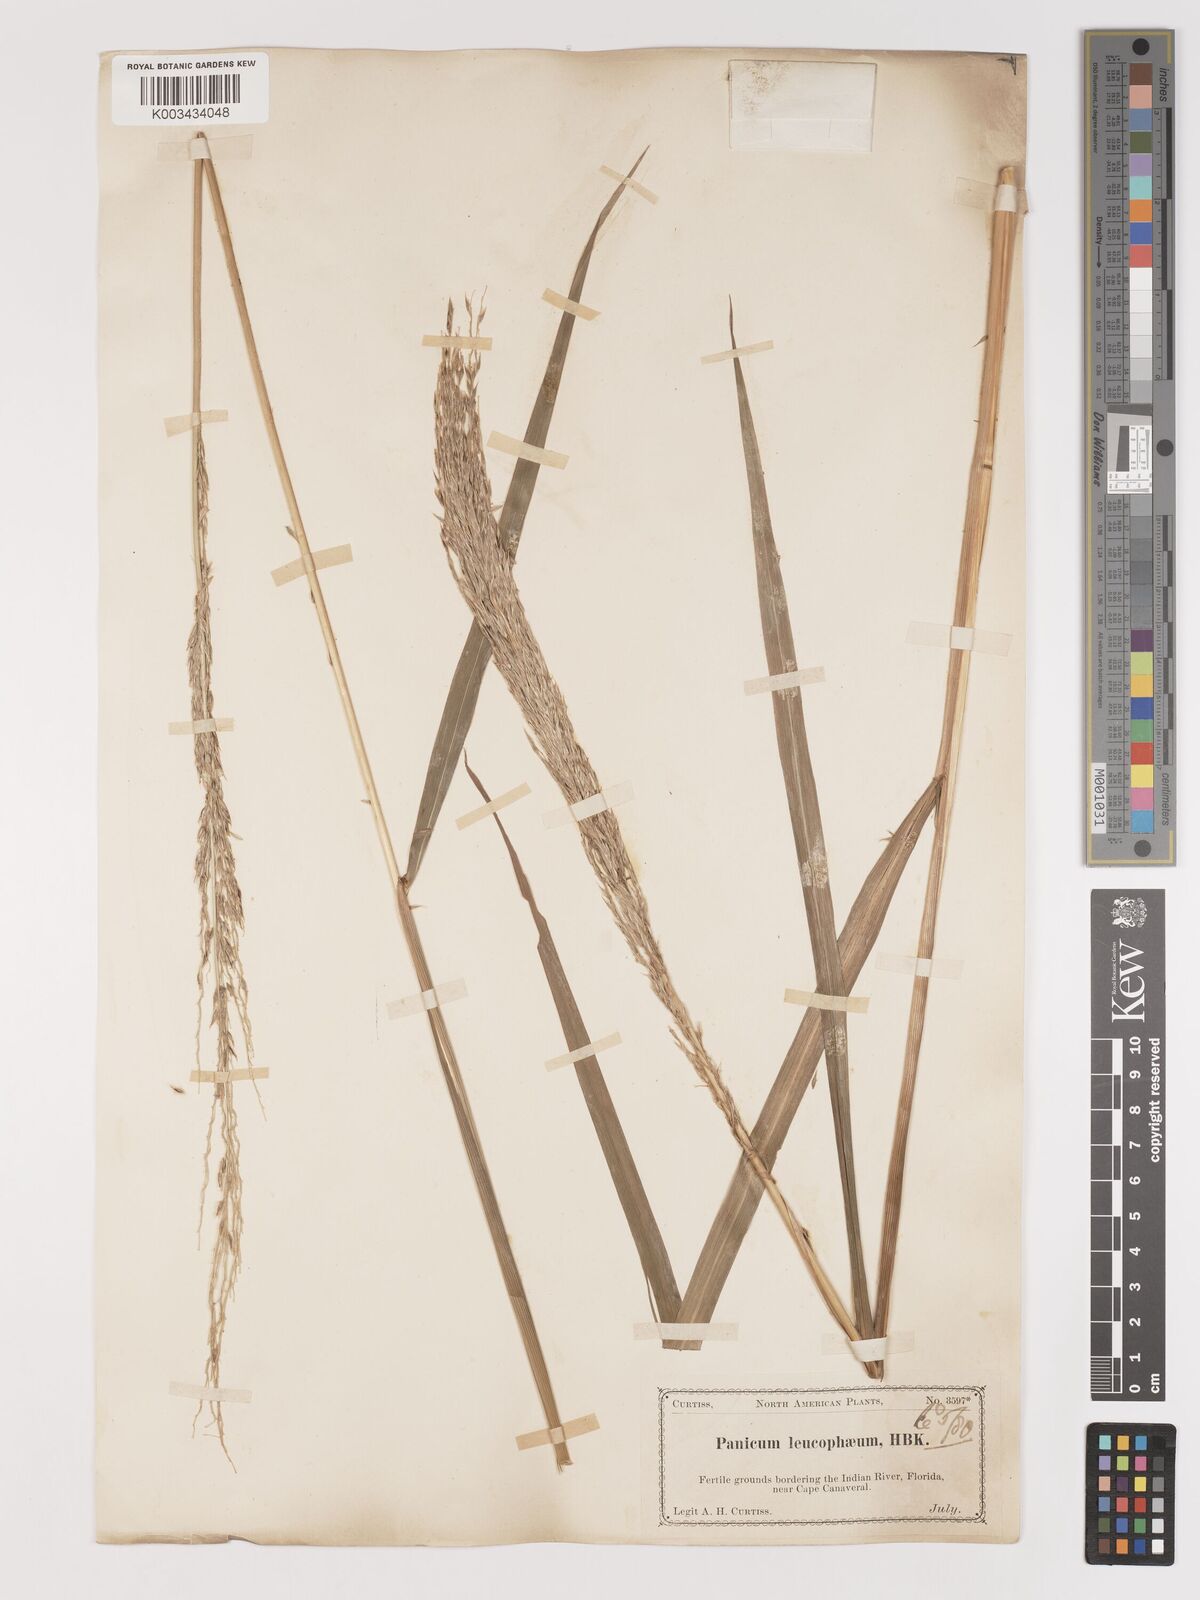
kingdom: Plantae
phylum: Tracheophyta
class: Liliopsida
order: Poales
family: Poaceae
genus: Digitaria
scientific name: Digitaria insularis
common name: Sourgrass
